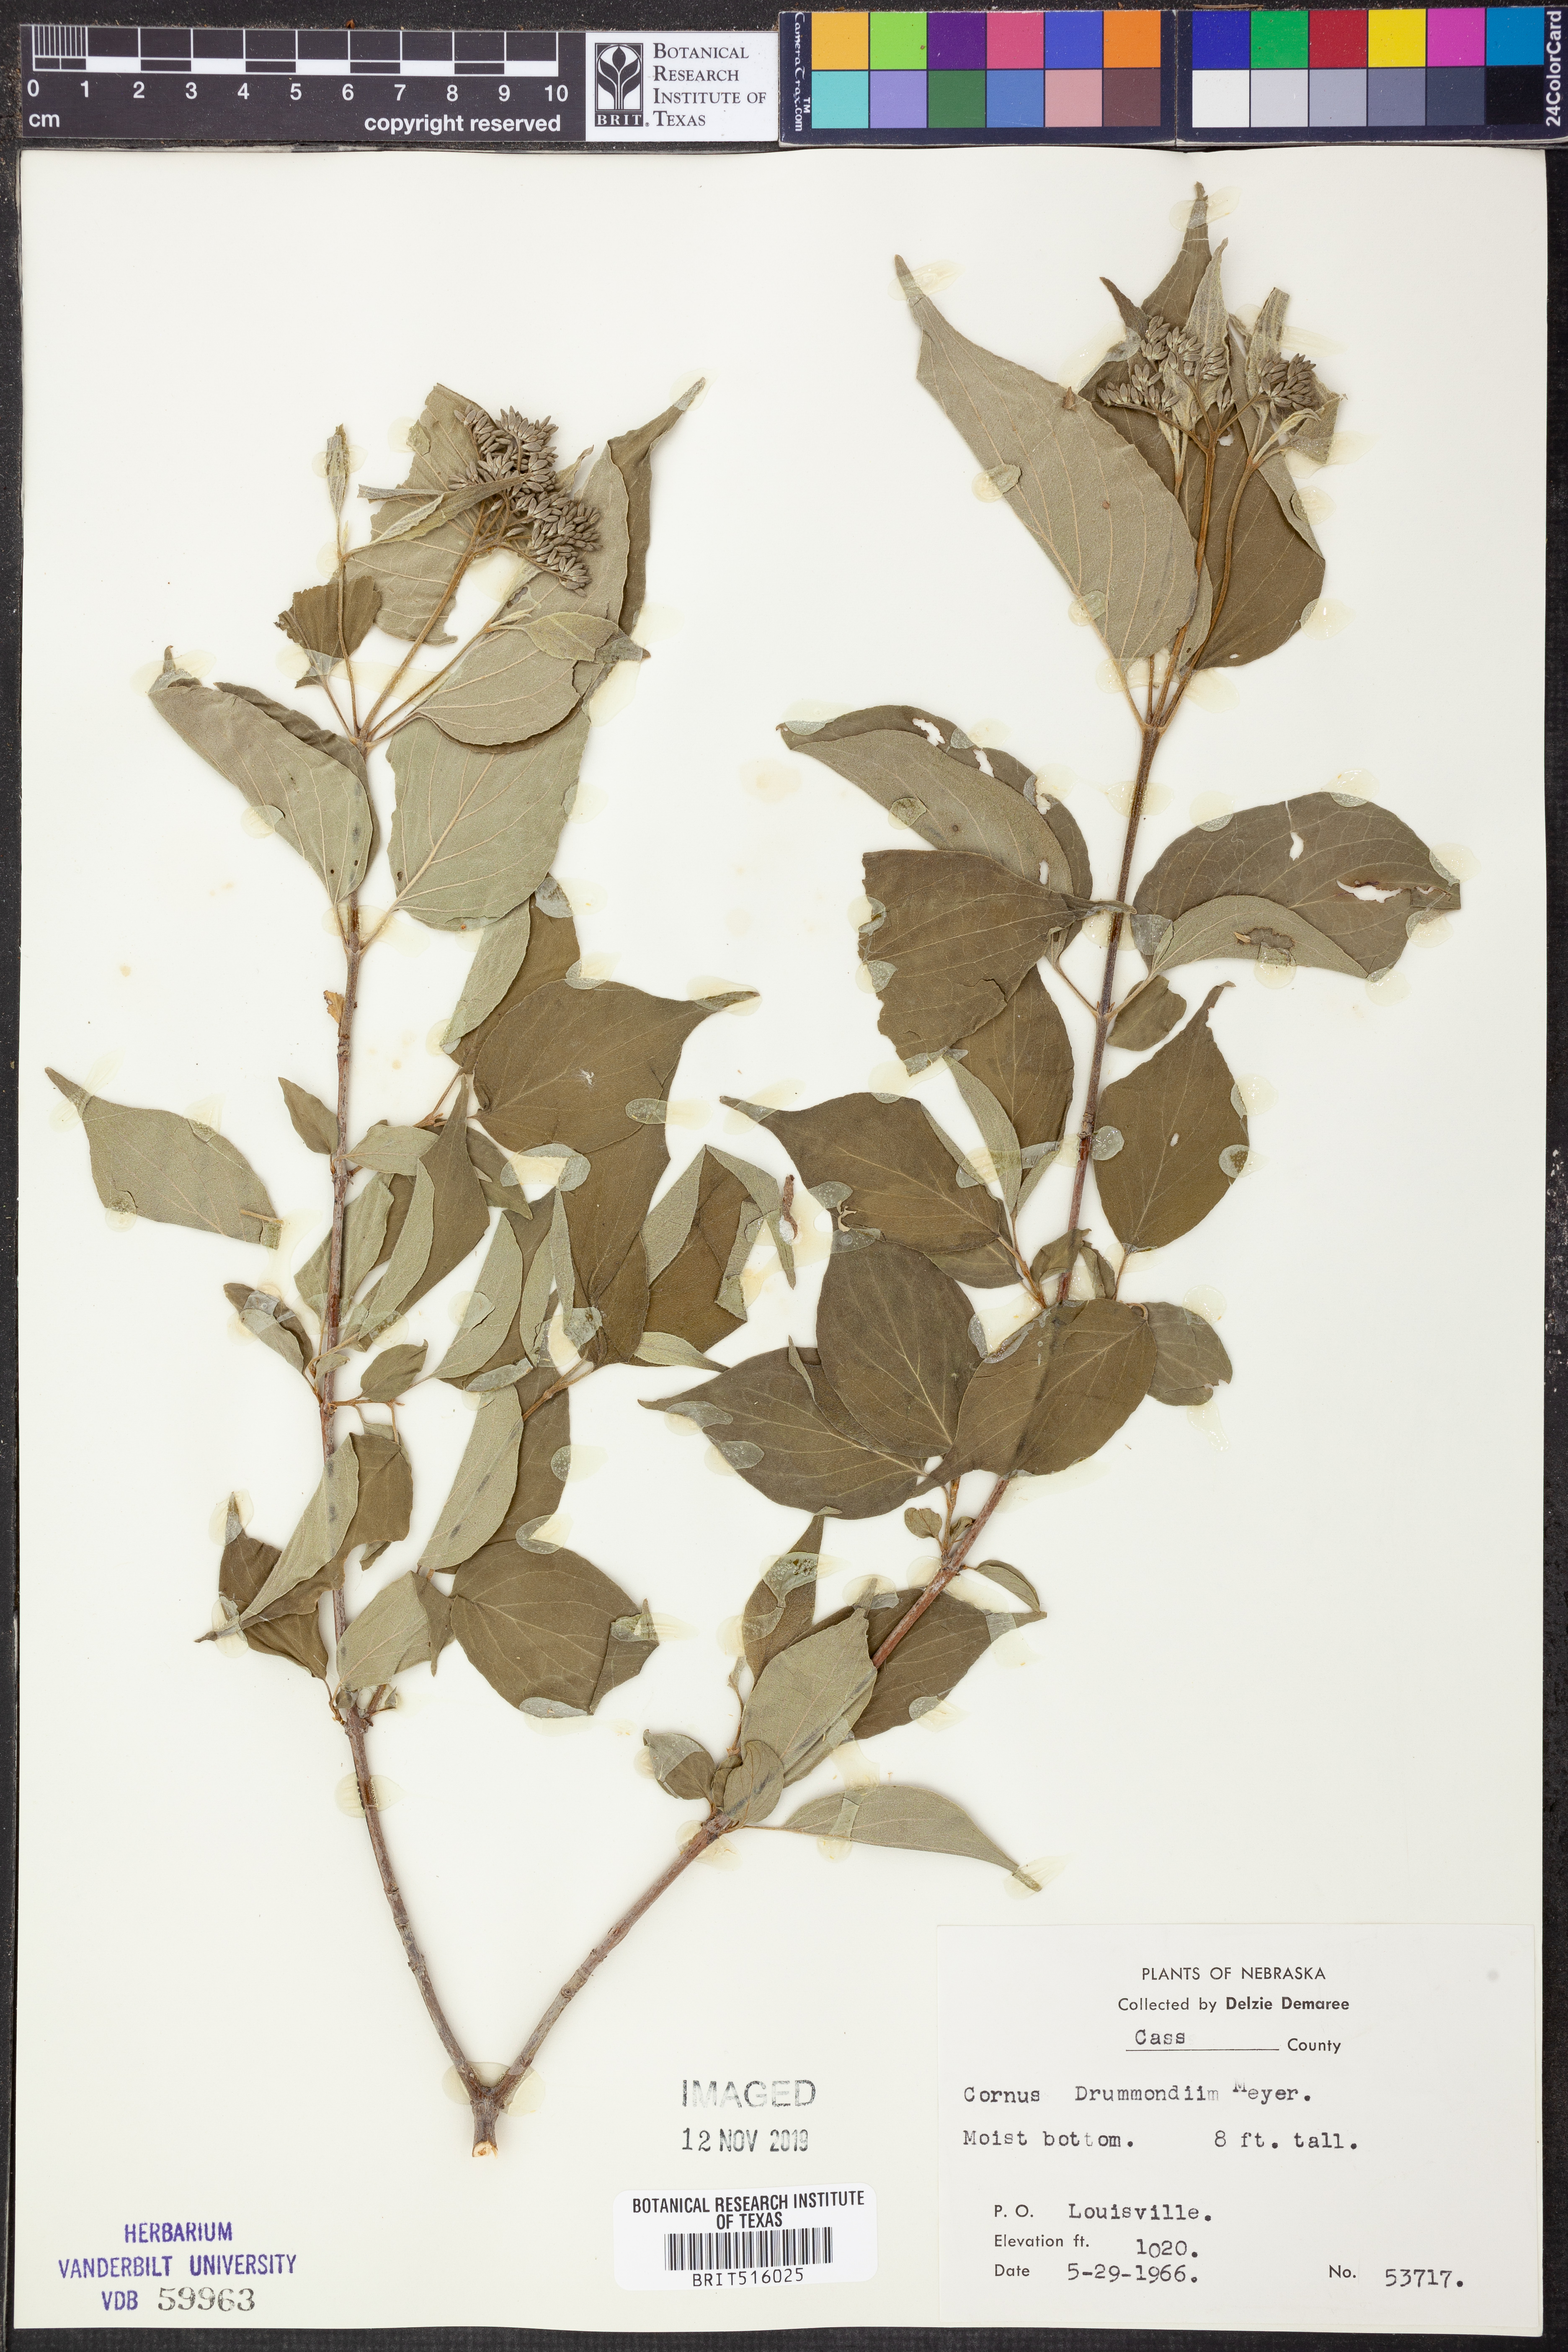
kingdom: Plantae
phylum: Tracheophyta
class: Magnoliopsida
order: Cornales
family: Cornaceae
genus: Cornus
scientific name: Cornus drummondii
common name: Rough-leaf dogwood
